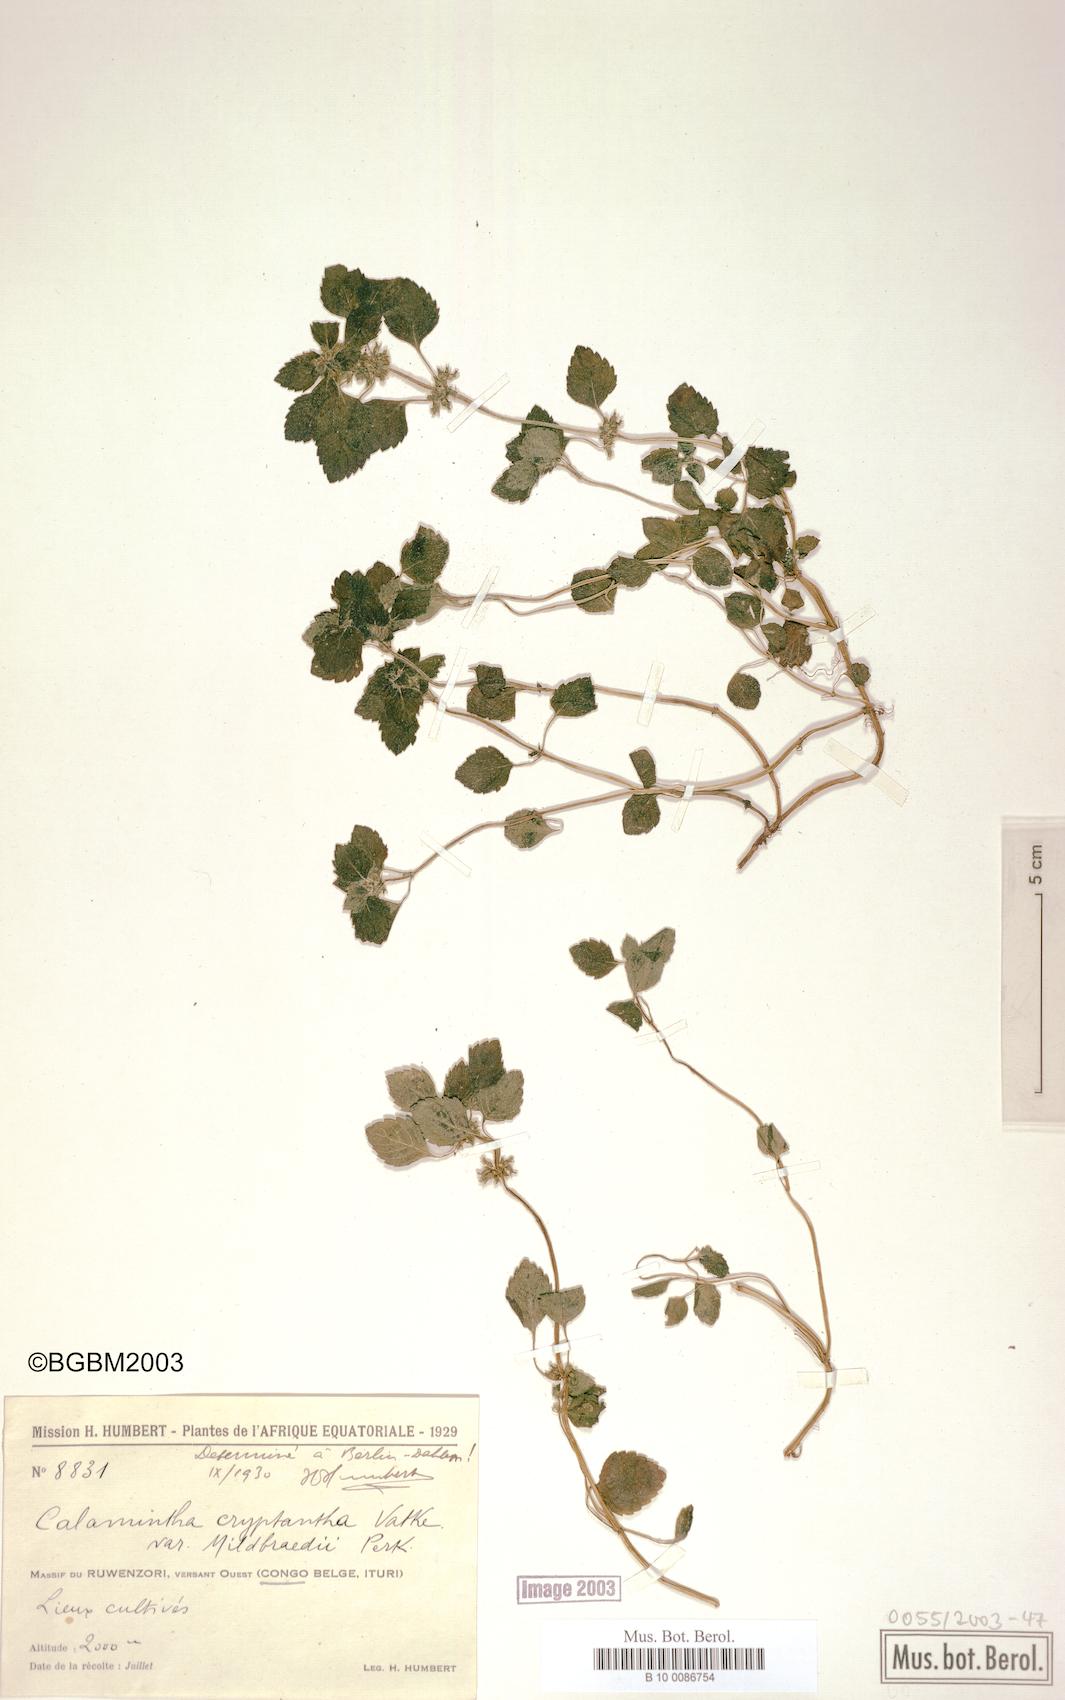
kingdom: Plantae
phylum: Tracheophyta
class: Magnoliopsida
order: Lamiales
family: Lamiaceae
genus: Clinopodium
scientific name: Clinopodium simense
